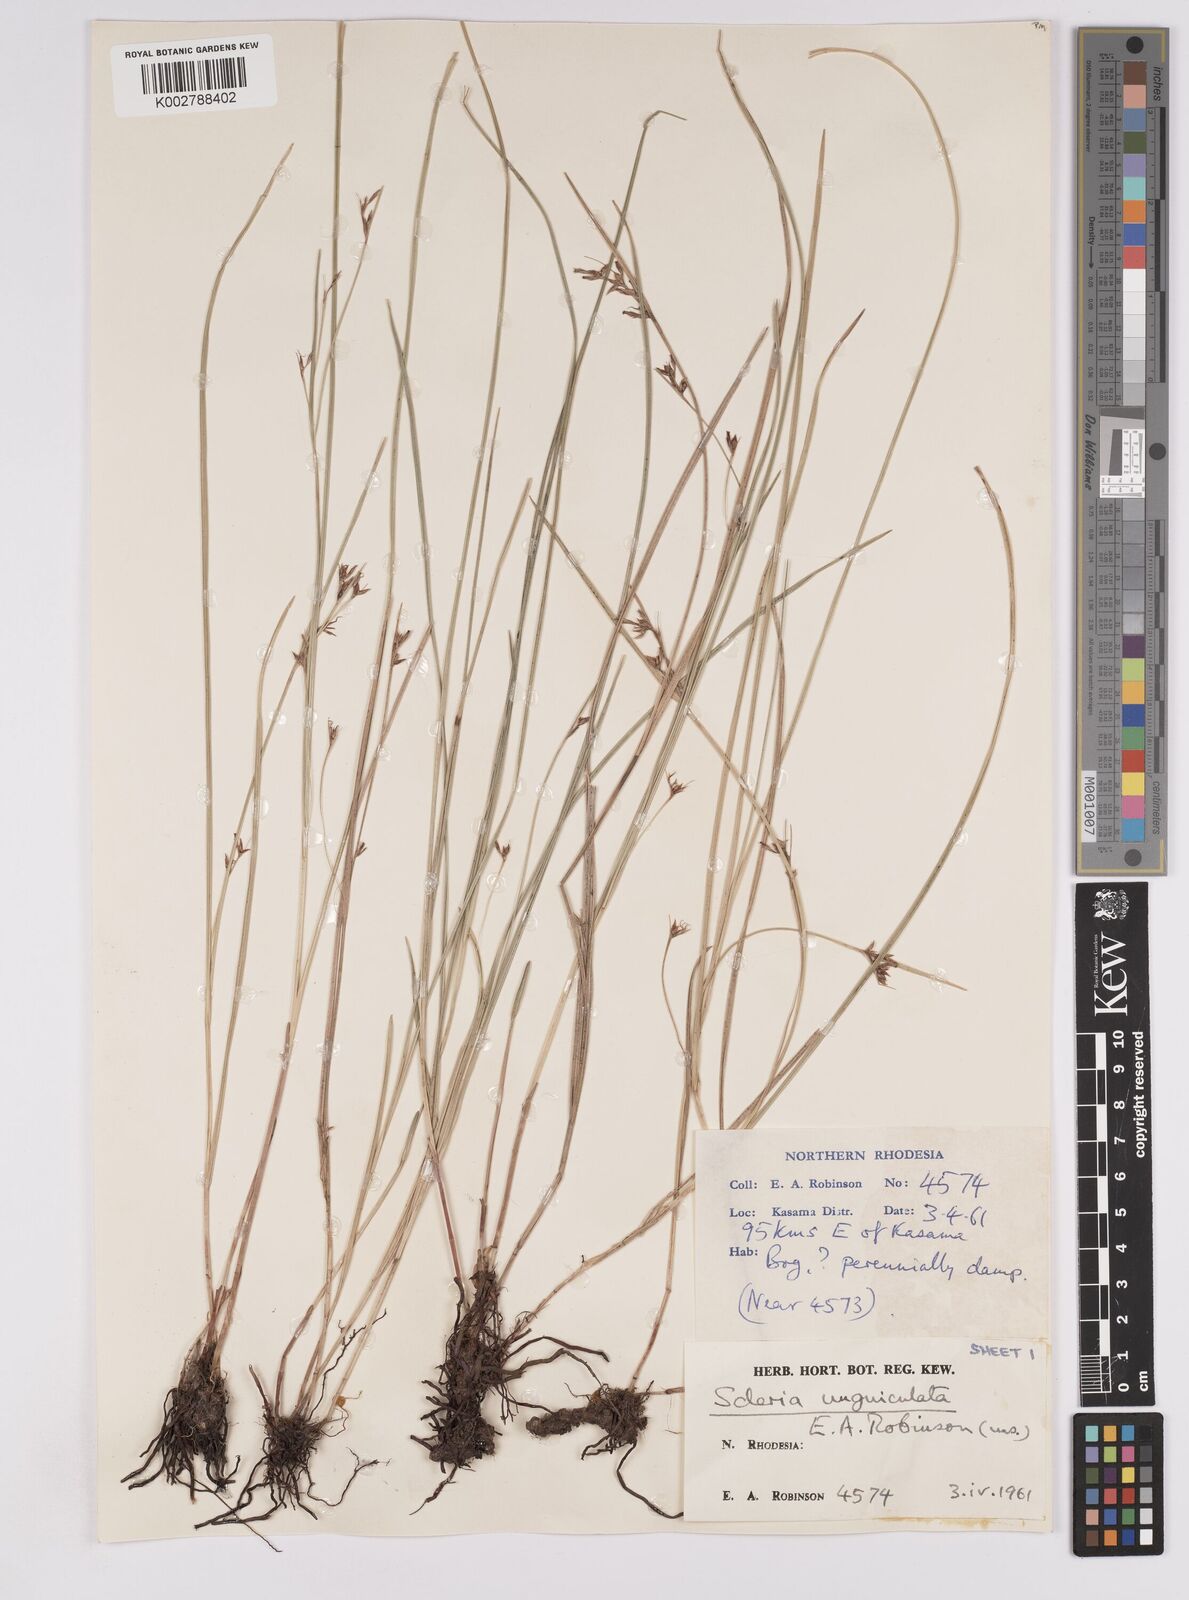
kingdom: Plantae
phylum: Tracheophyta
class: Liliopsida
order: Poales
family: Cyperaceae
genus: Scleria
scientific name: Scleria unguiculata
